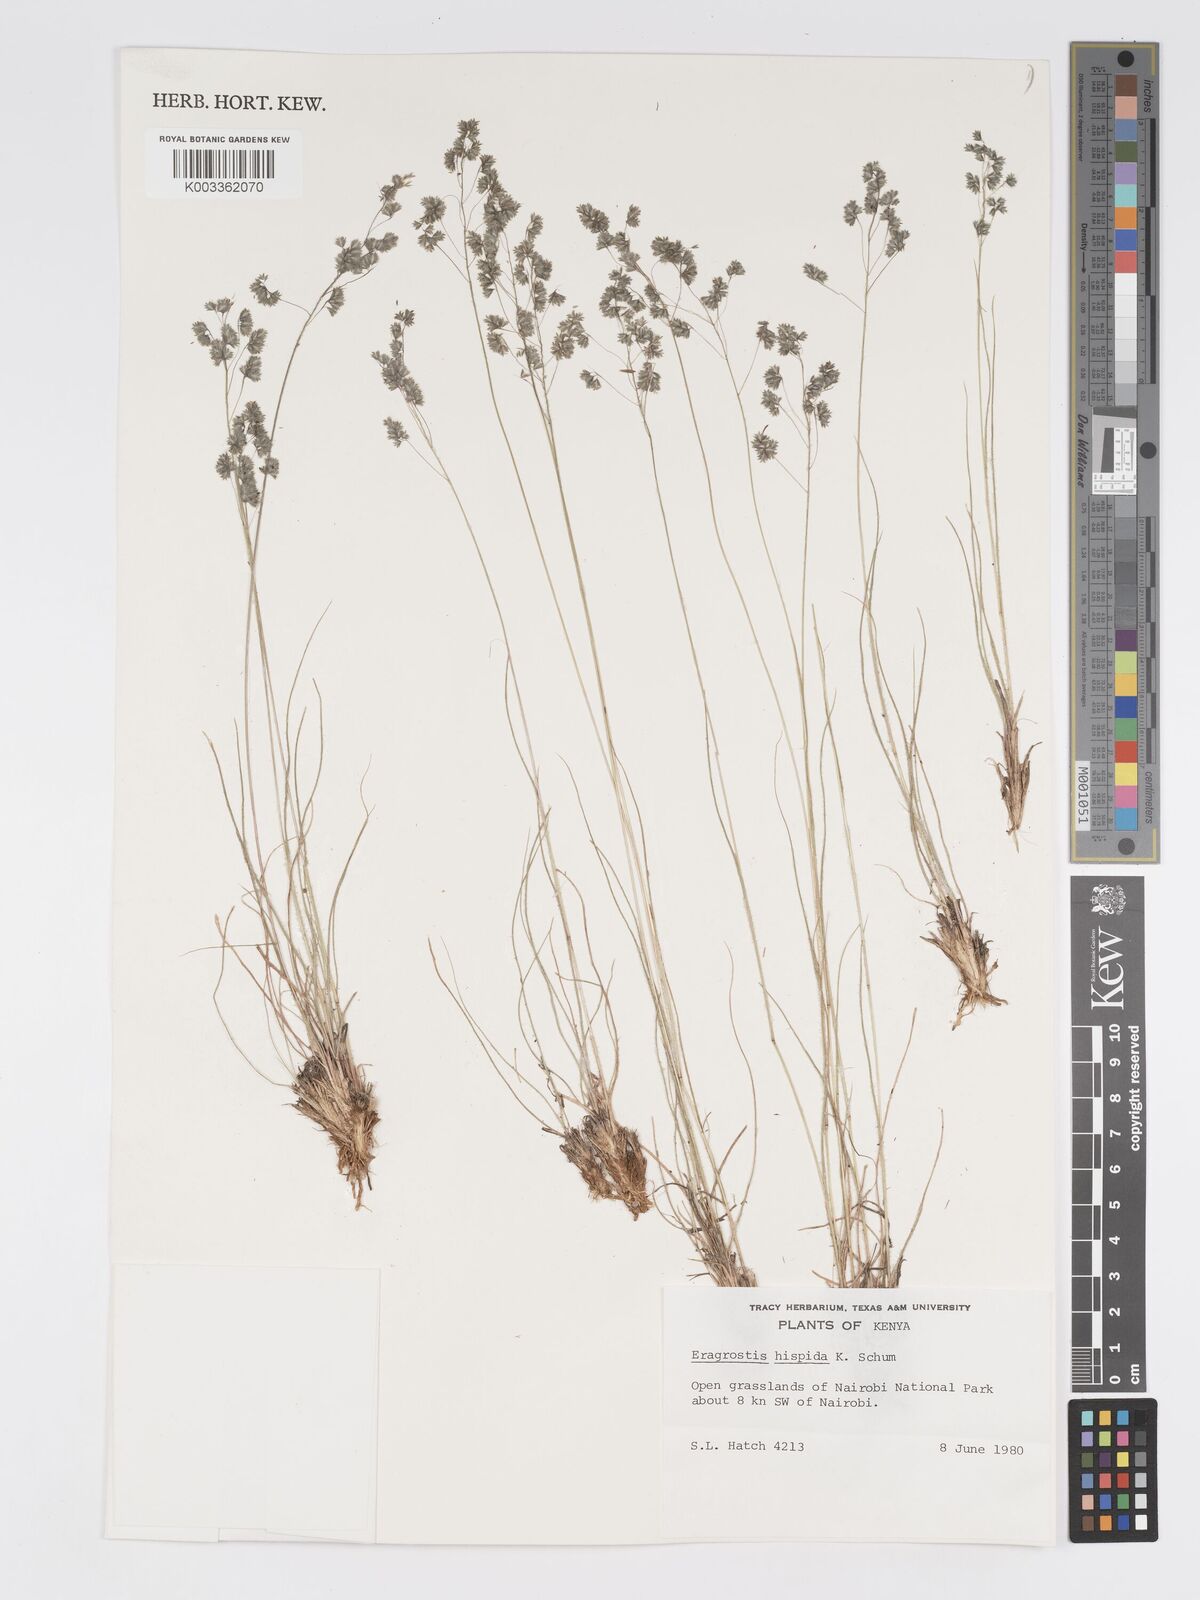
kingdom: Plantae
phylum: Tracheophyta
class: Liliopsida
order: Poales
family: Poaceae
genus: Eragrostis
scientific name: Eragrostis hispida
